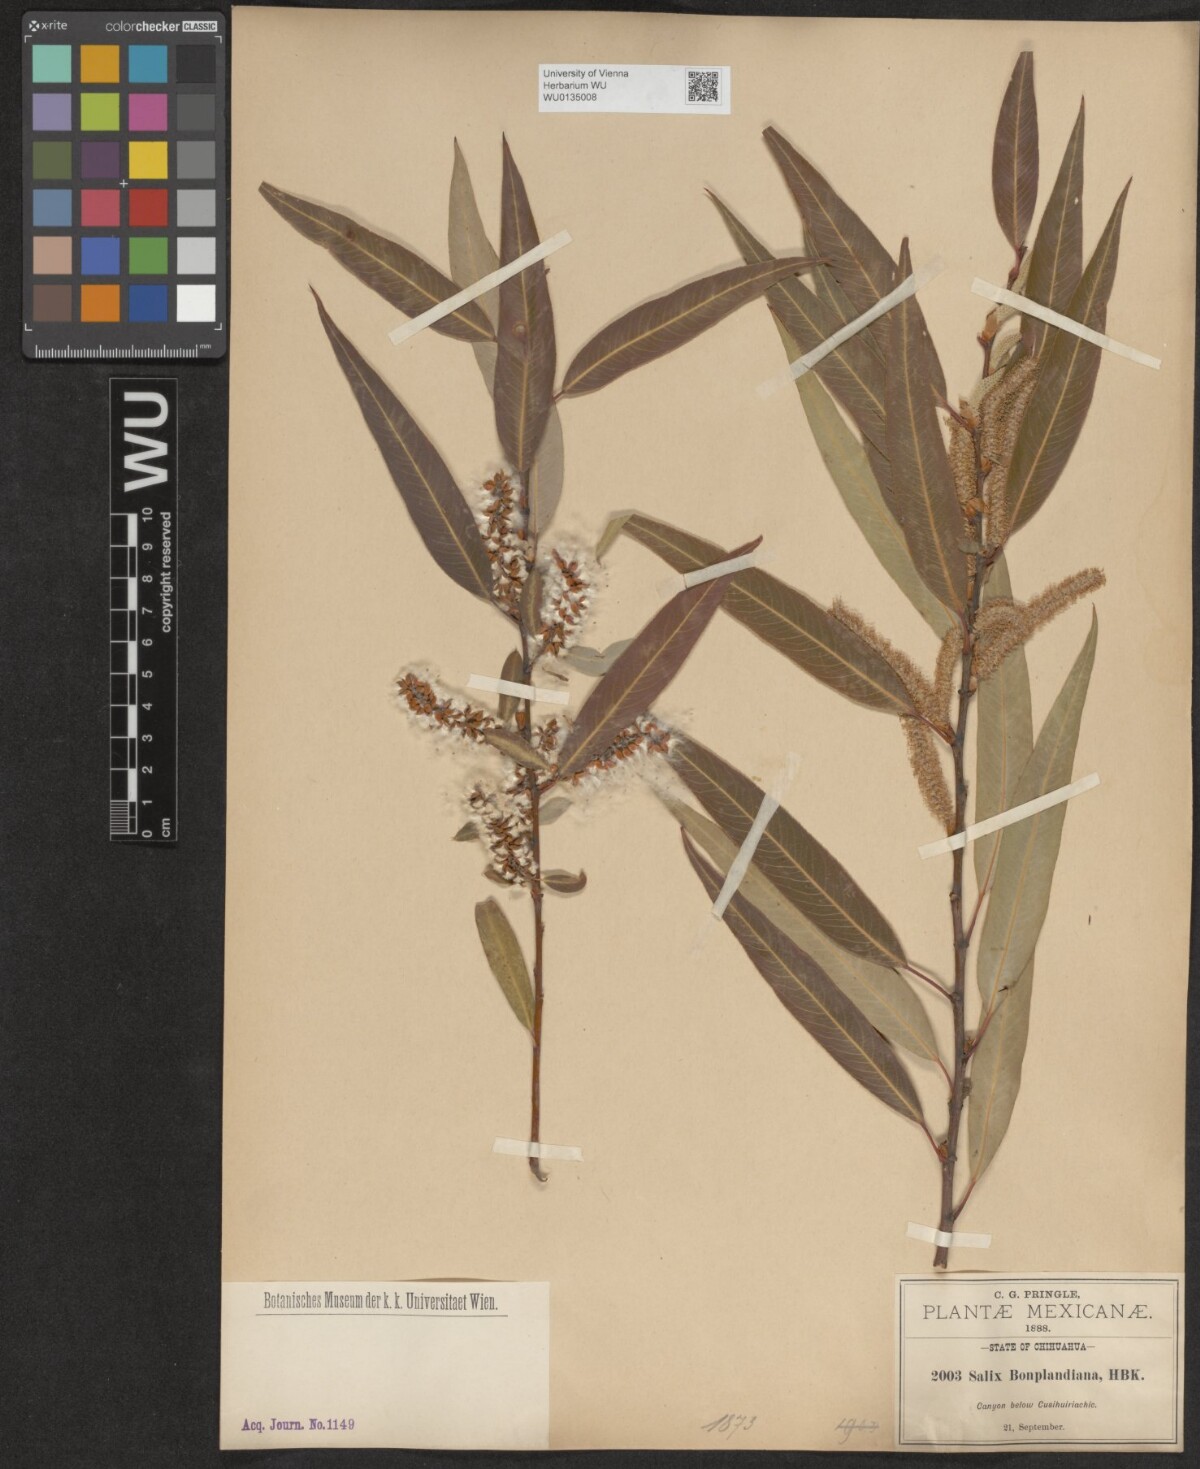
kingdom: Plantae
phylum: Tracheophyta
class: Magnoliopsida
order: Malpighiales
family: Salicaceae
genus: Salix
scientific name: Salix bonplandiana
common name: Bonpland’s willow
